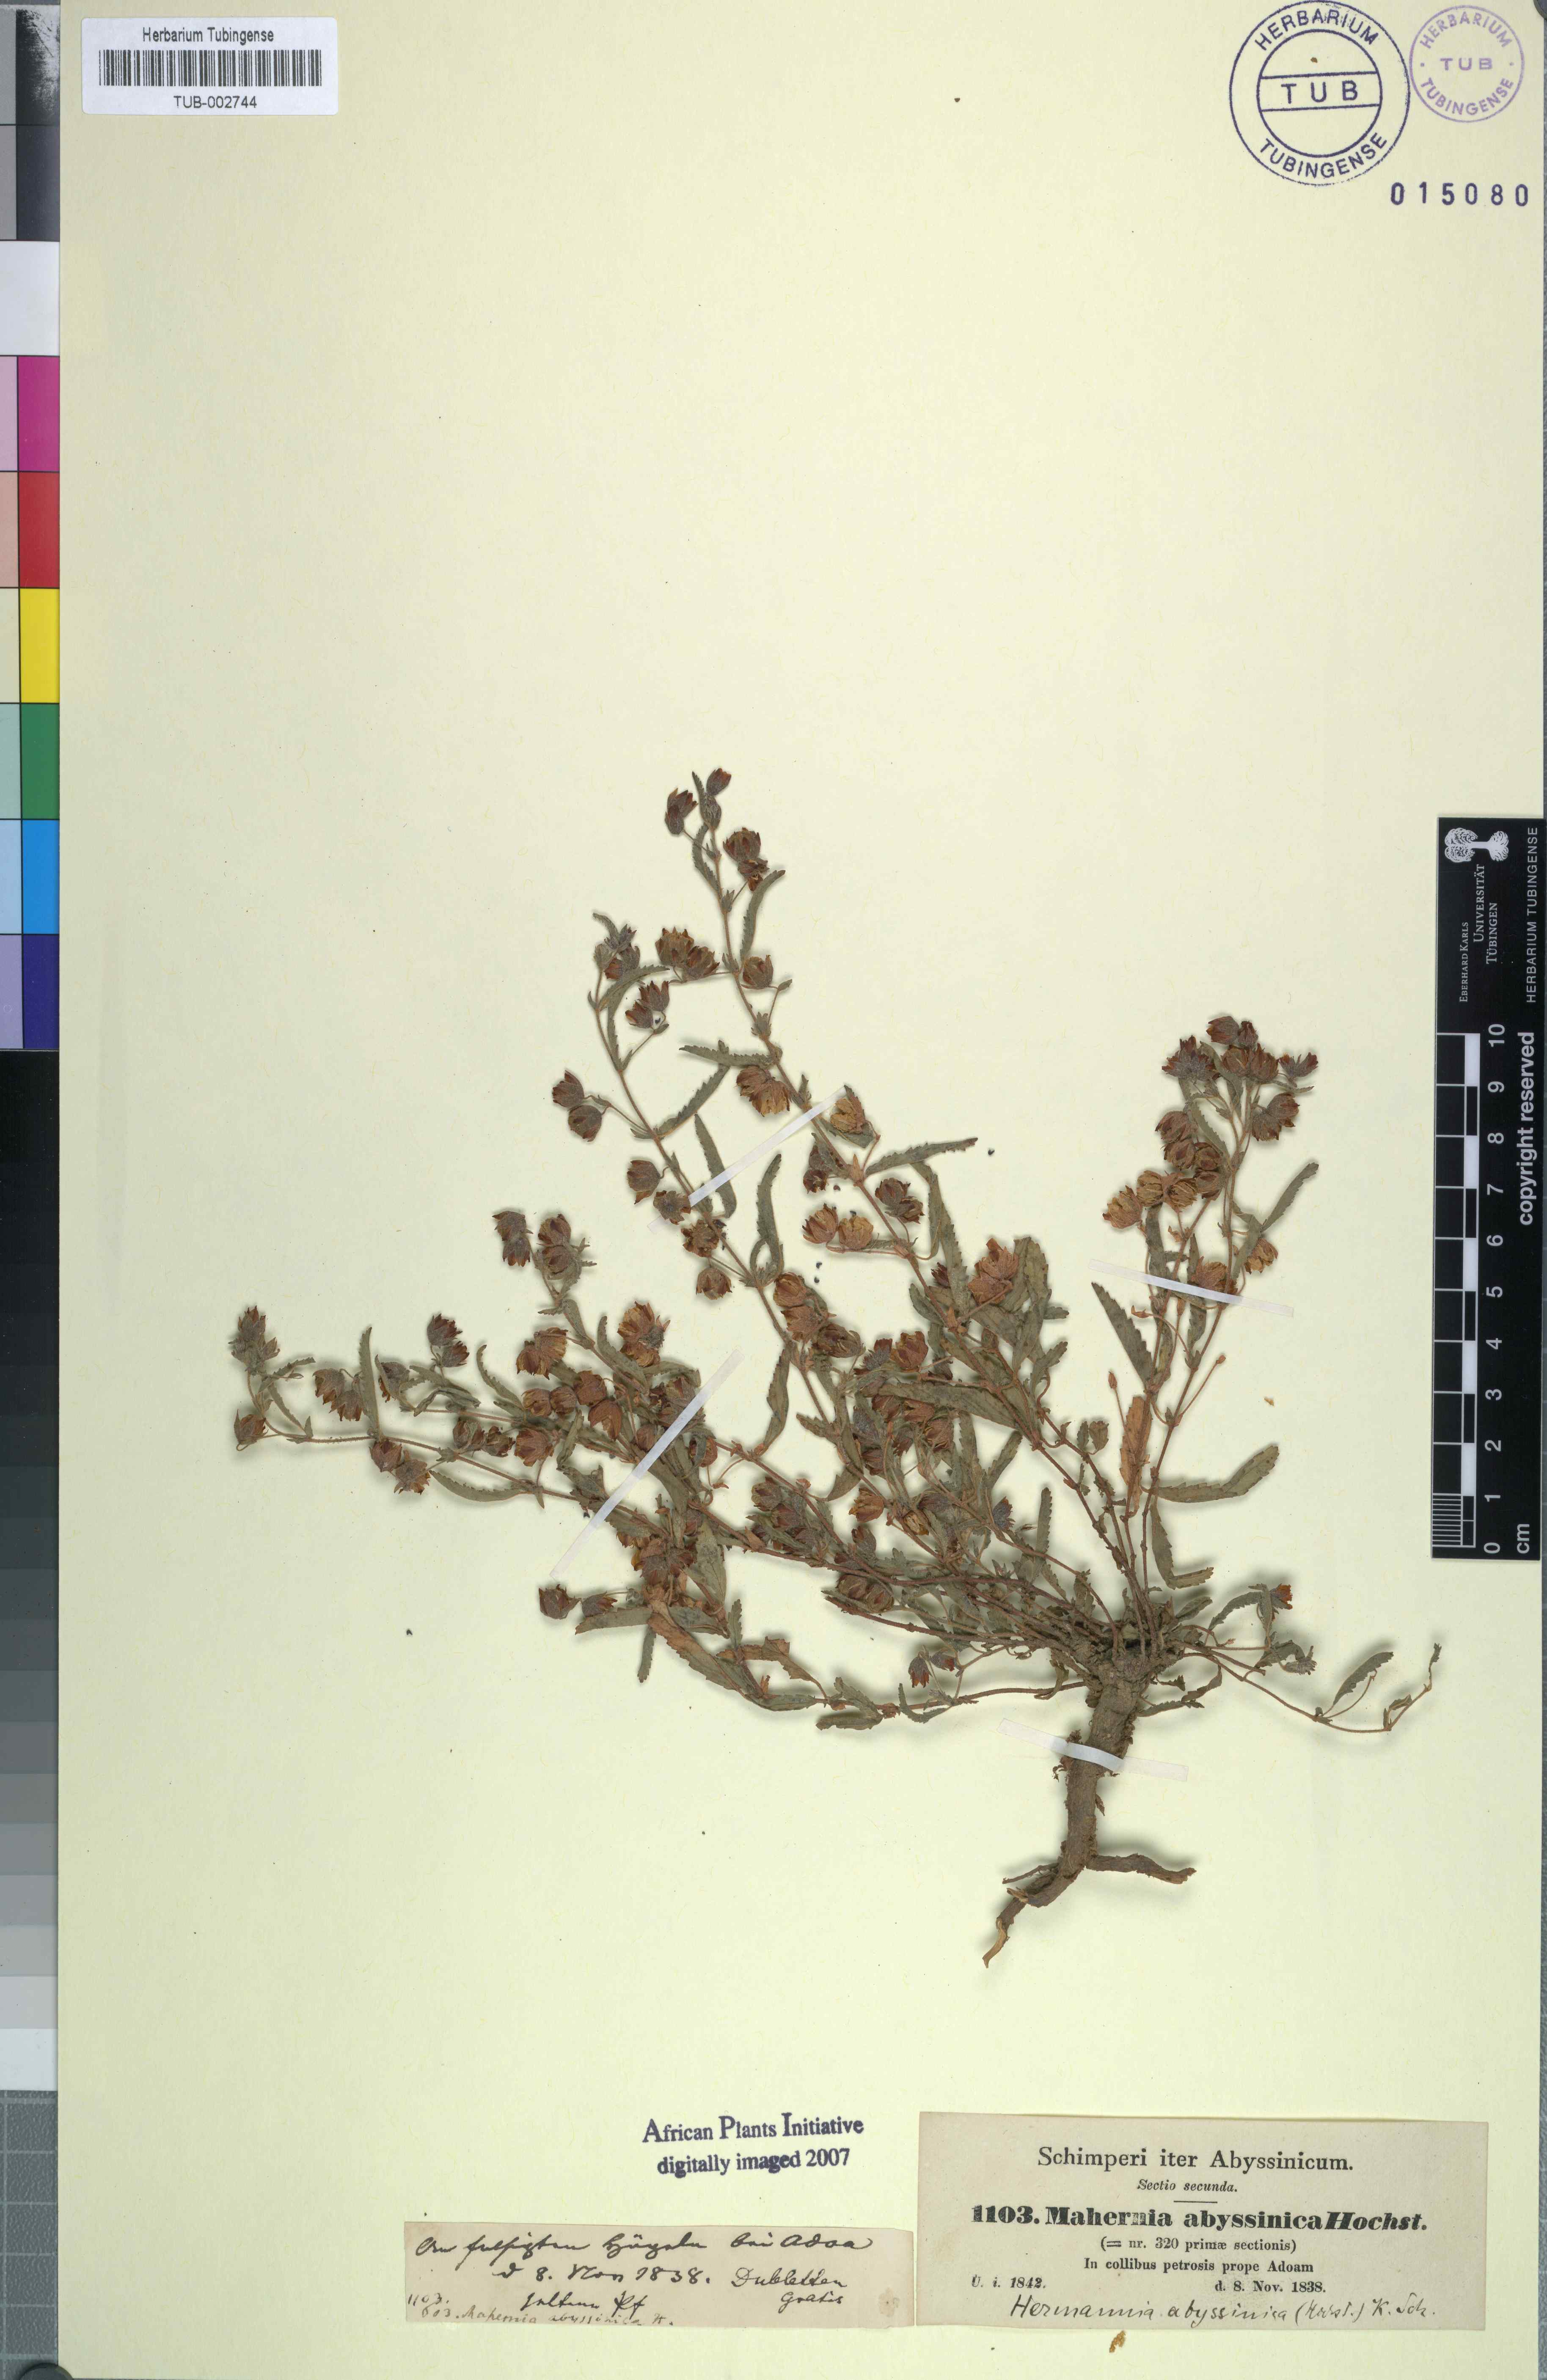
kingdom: Plantae
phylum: Tracheophyta
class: Magnoliopsida
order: Malvales
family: Malvaceae
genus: Hermannia
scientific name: Hermannia quartiniana
